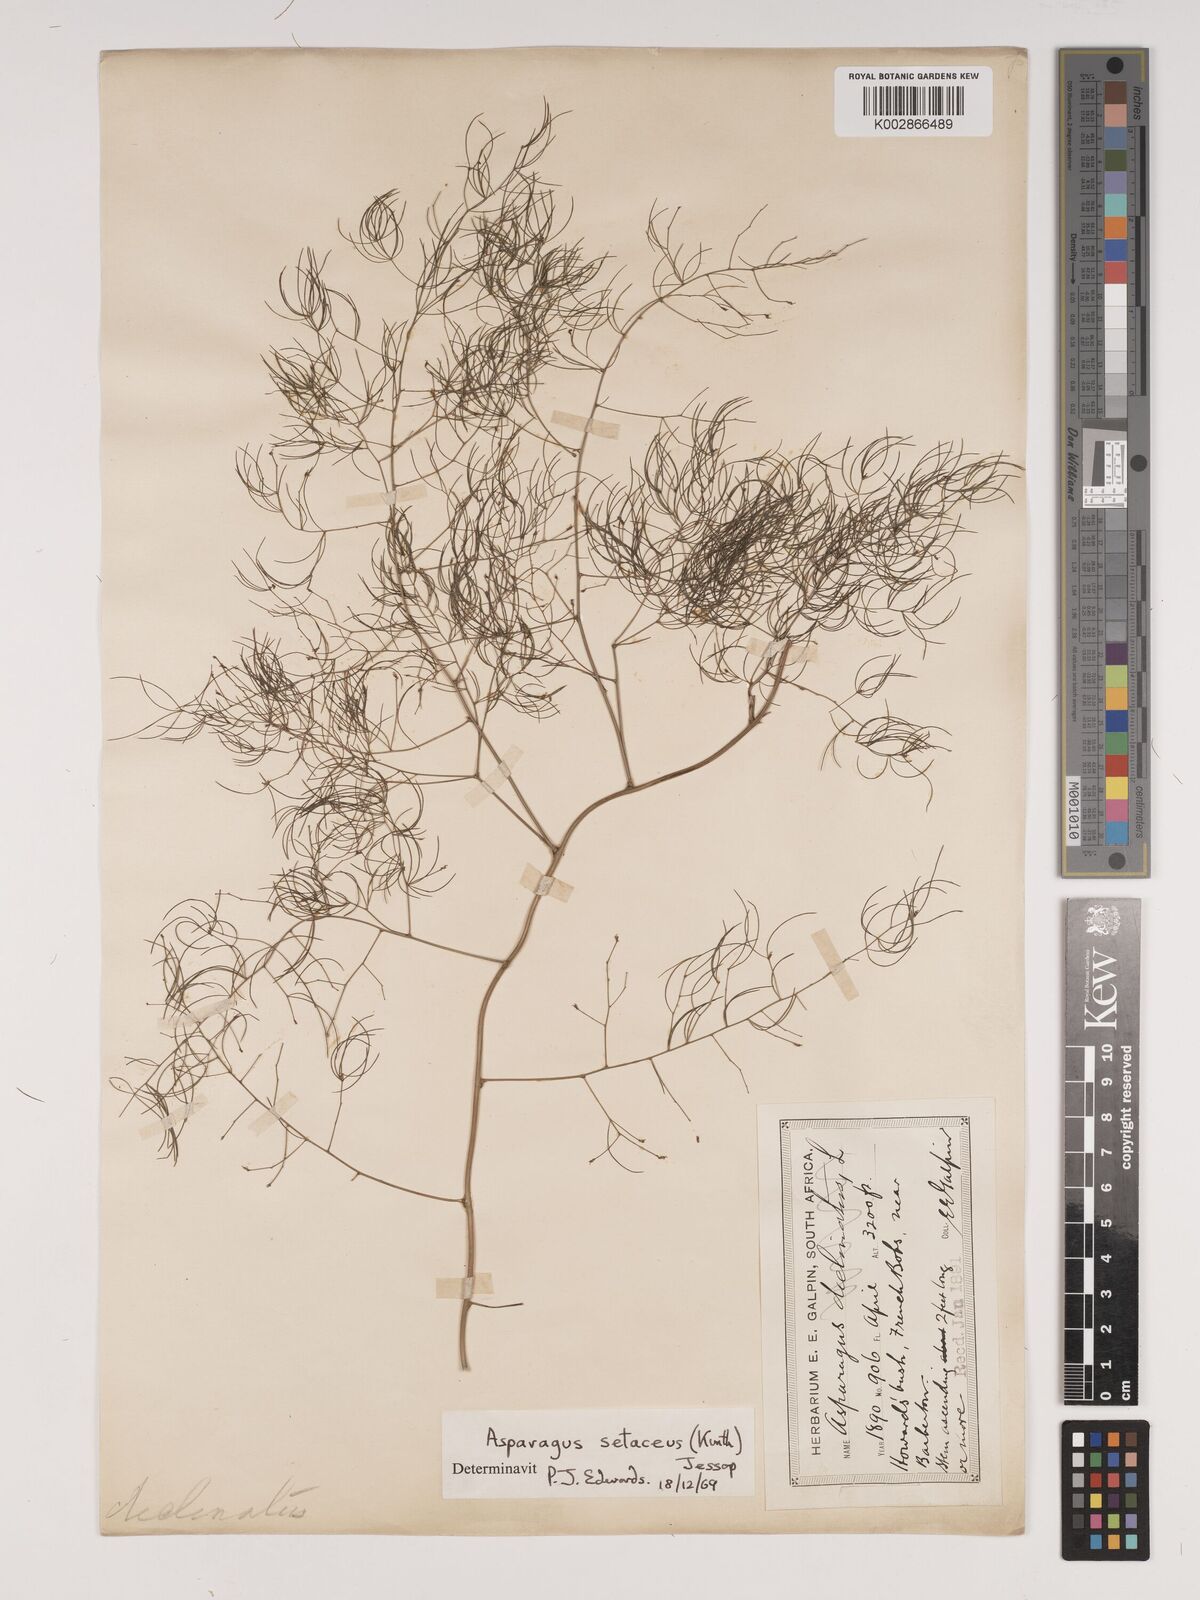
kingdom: Plantae
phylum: Tracheophyta
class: Liliopsida
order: Asparagales
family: Asparagaceae
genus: Asparagus
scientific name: Asparagus setaceus
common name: Common asparagus fern
